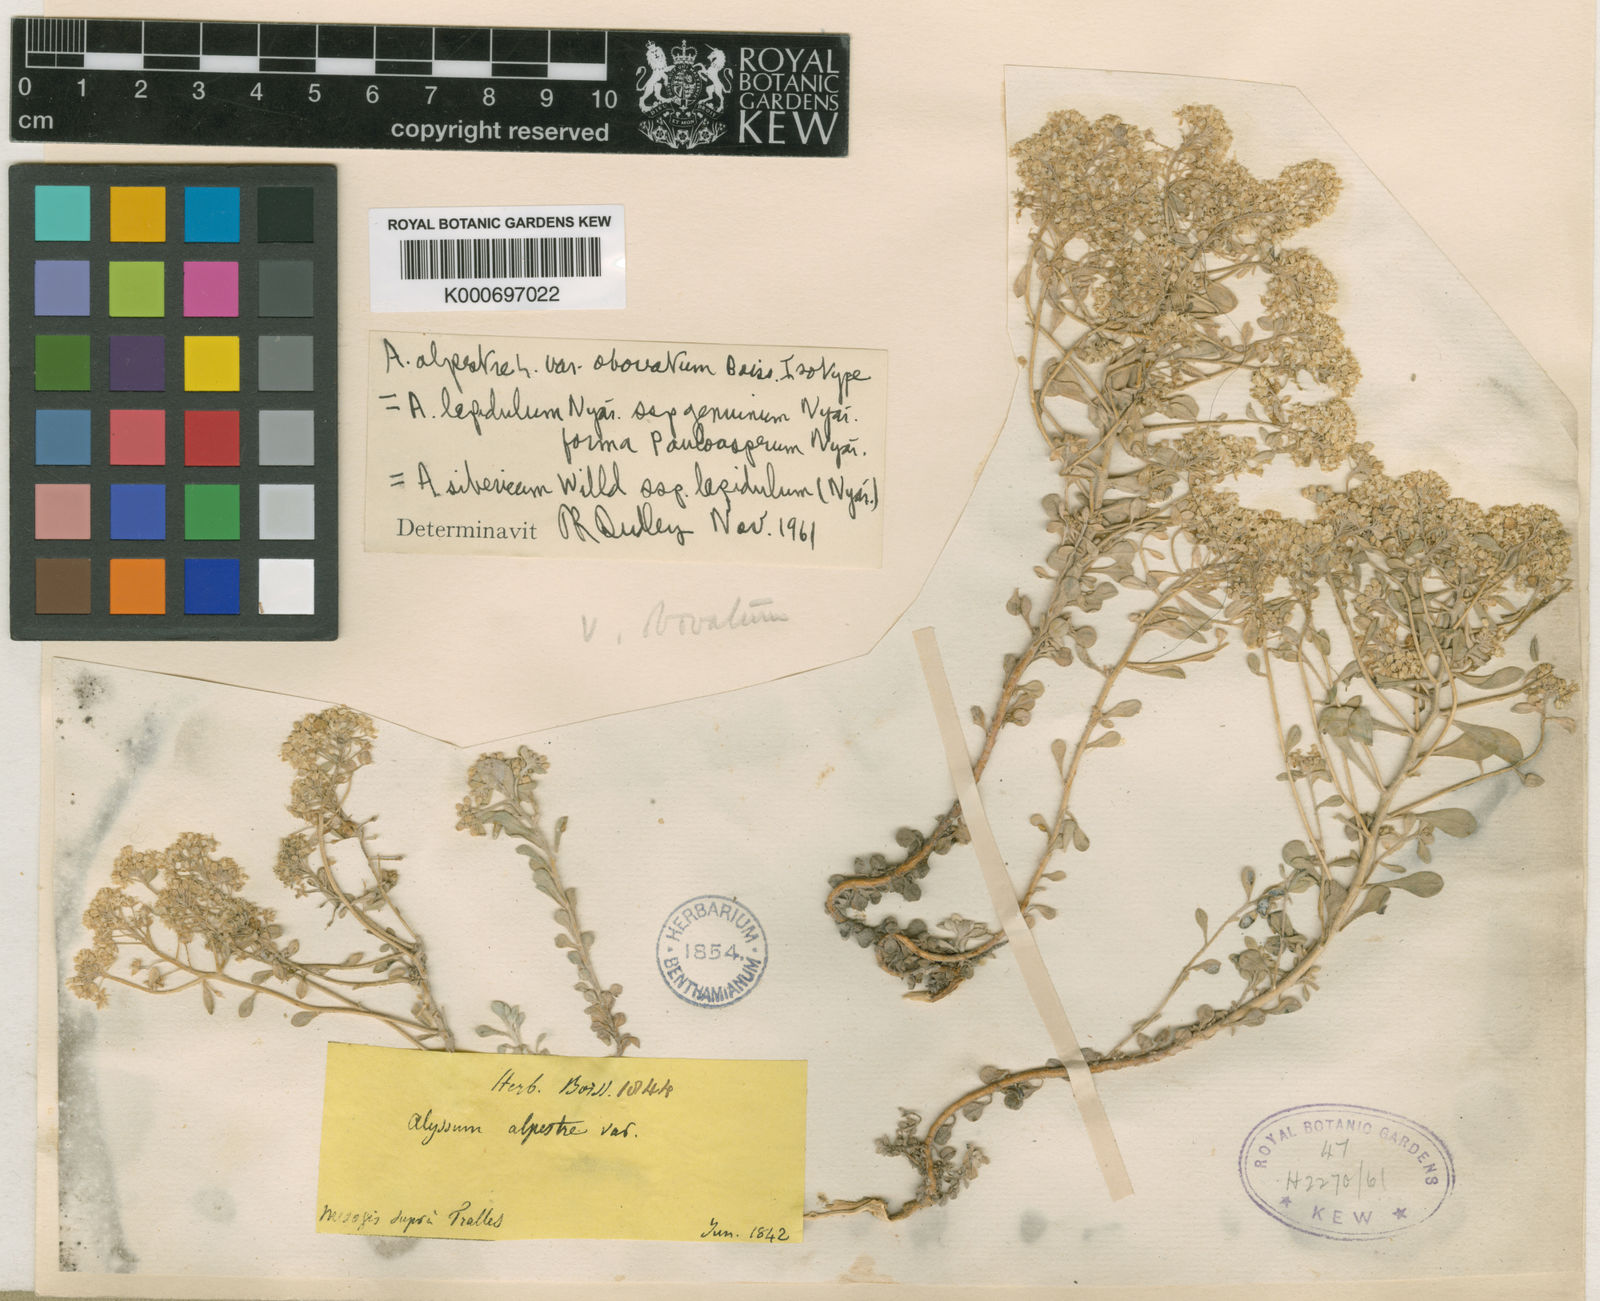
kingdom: Plantae
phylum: Tracheophyta
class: Magnoliopsida
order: Brassicales
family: Brassicaceae
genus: Odontarrhena
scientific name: Odontarrhena sibirica
